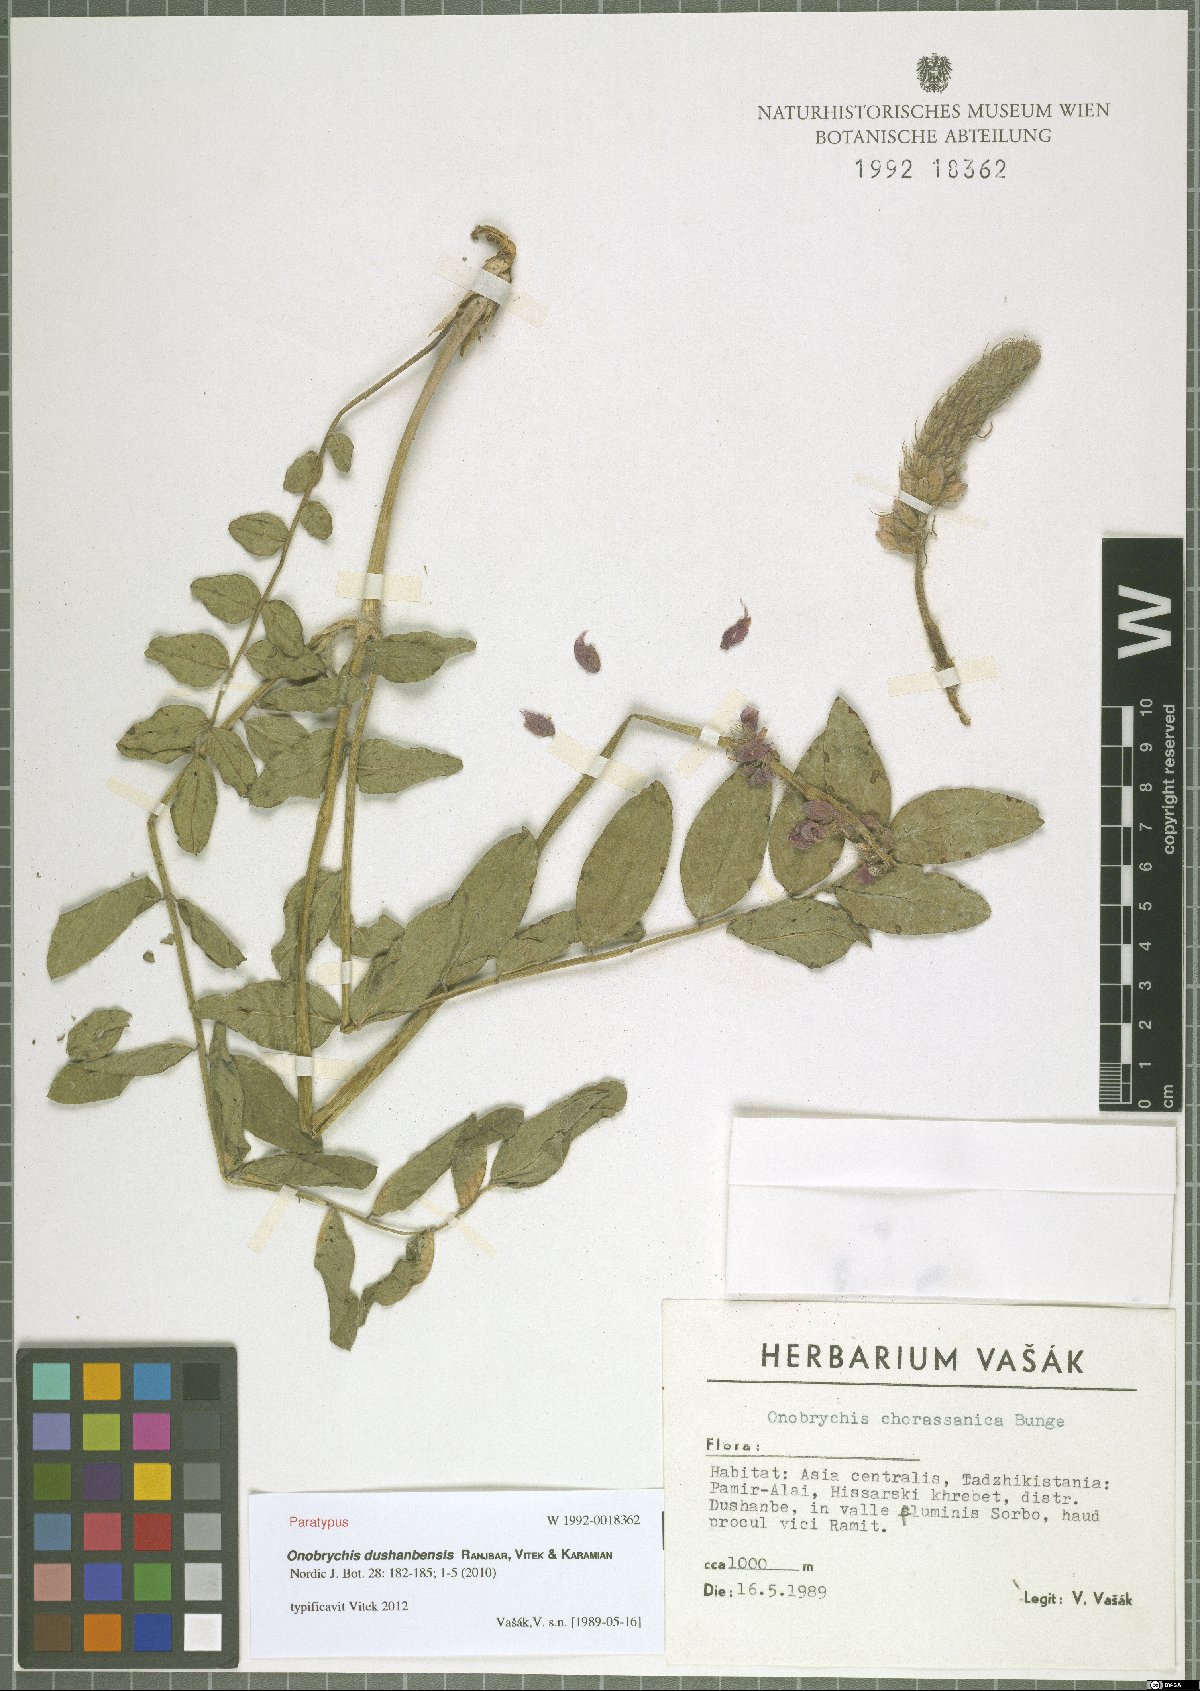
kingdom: Plantae
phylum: Tracheophyta
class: Magnoliopsida
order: Fabales
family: Fabaceae
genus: Onobrychis
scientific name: Onobrychis dushanbensis
